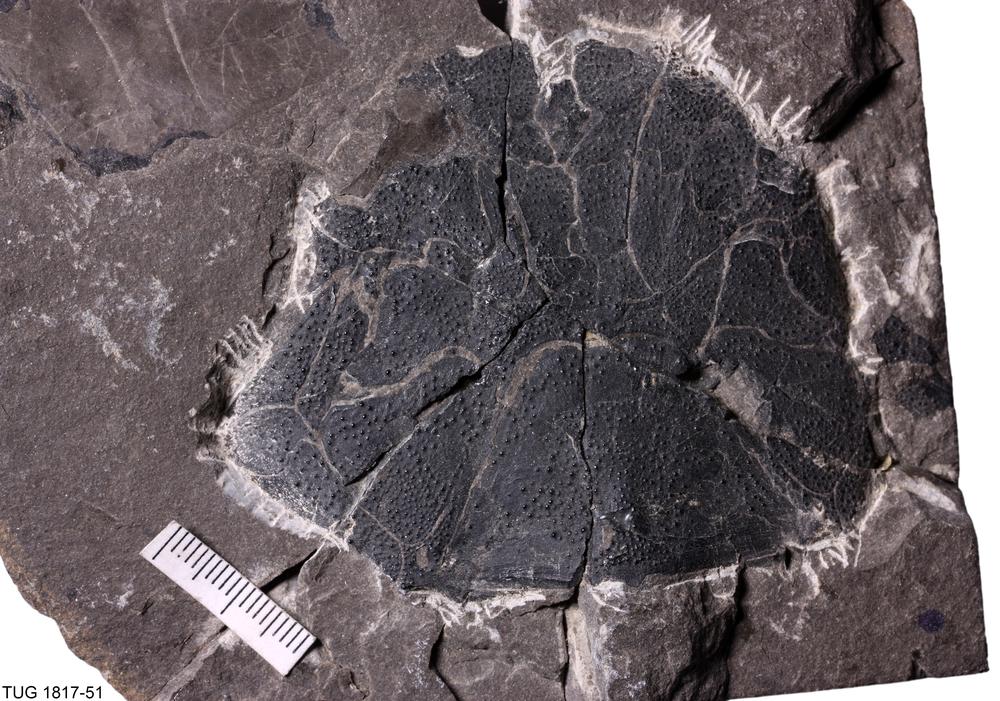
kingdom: Animalia
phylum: Chordata
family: Coccosteidae
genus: Coccosteus
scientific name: Coccosteus cuspidatus
